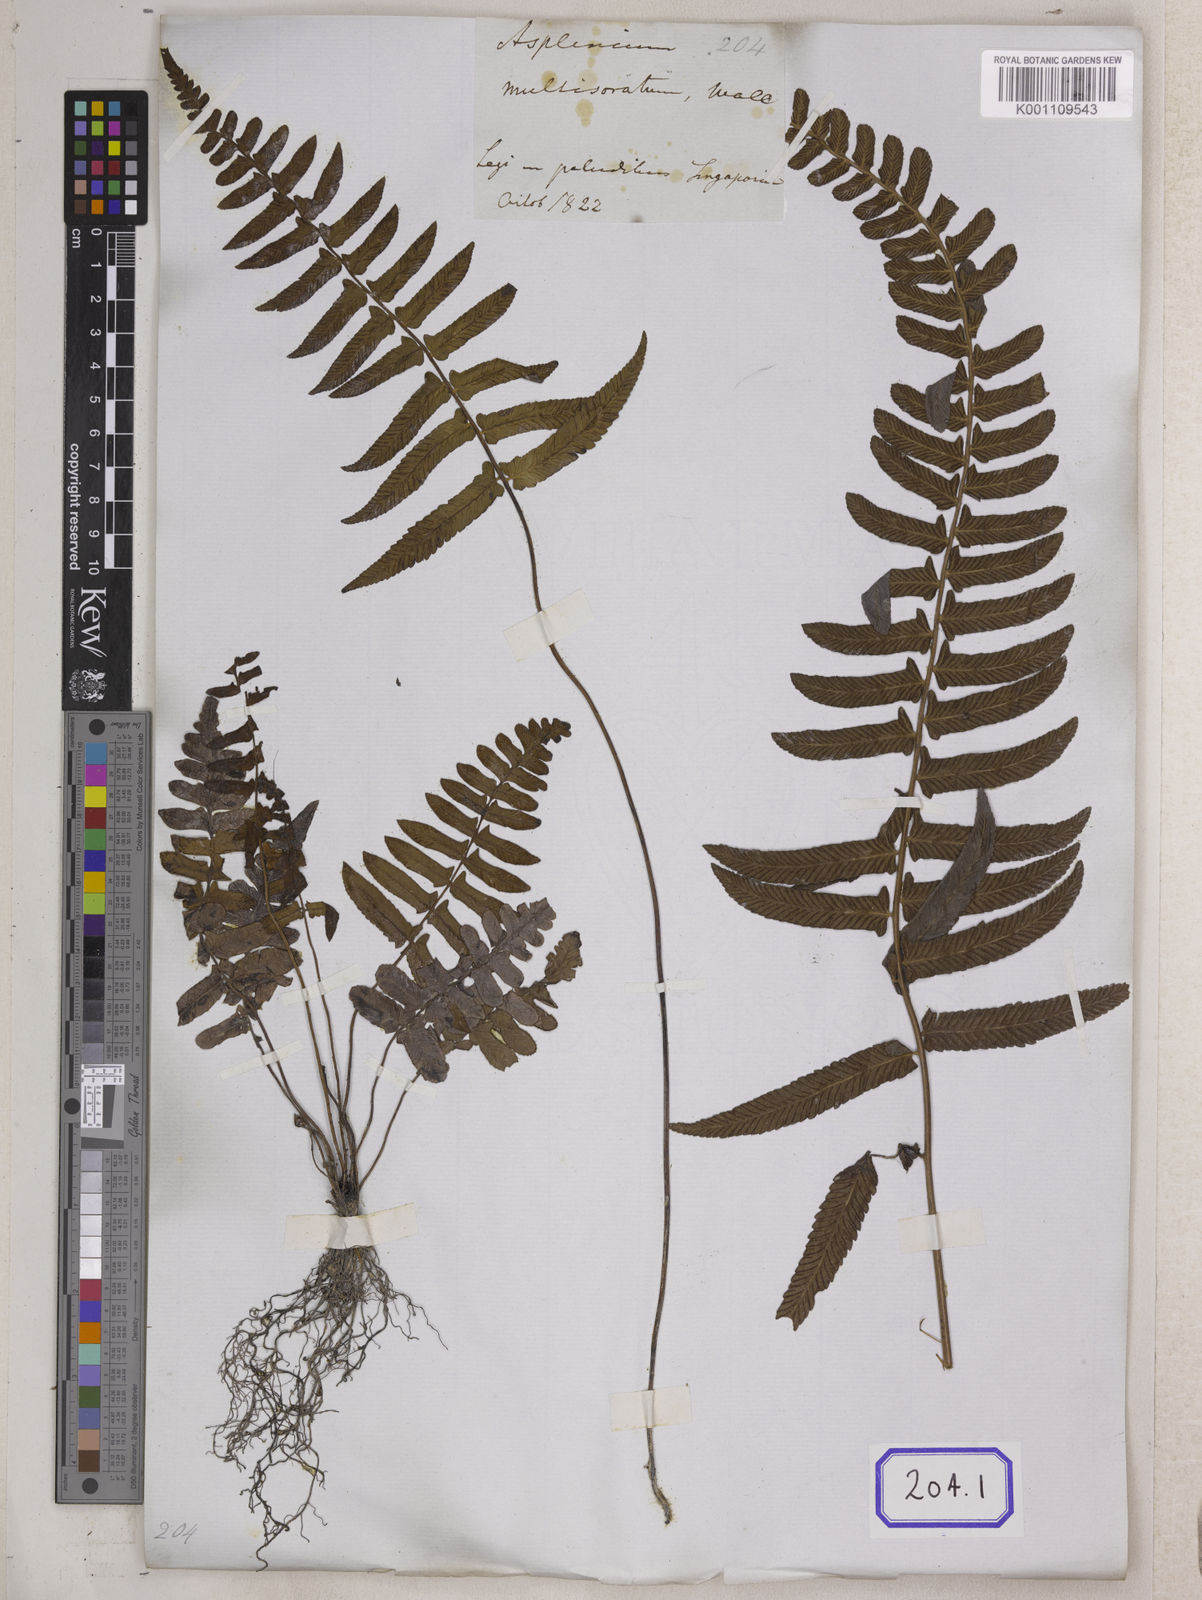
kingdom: Plantae
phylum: Tracheophyta
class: Polypodiopsida
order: Polypodiales
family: Aspleniaceae
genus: Asplenium
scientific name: Asplenium
